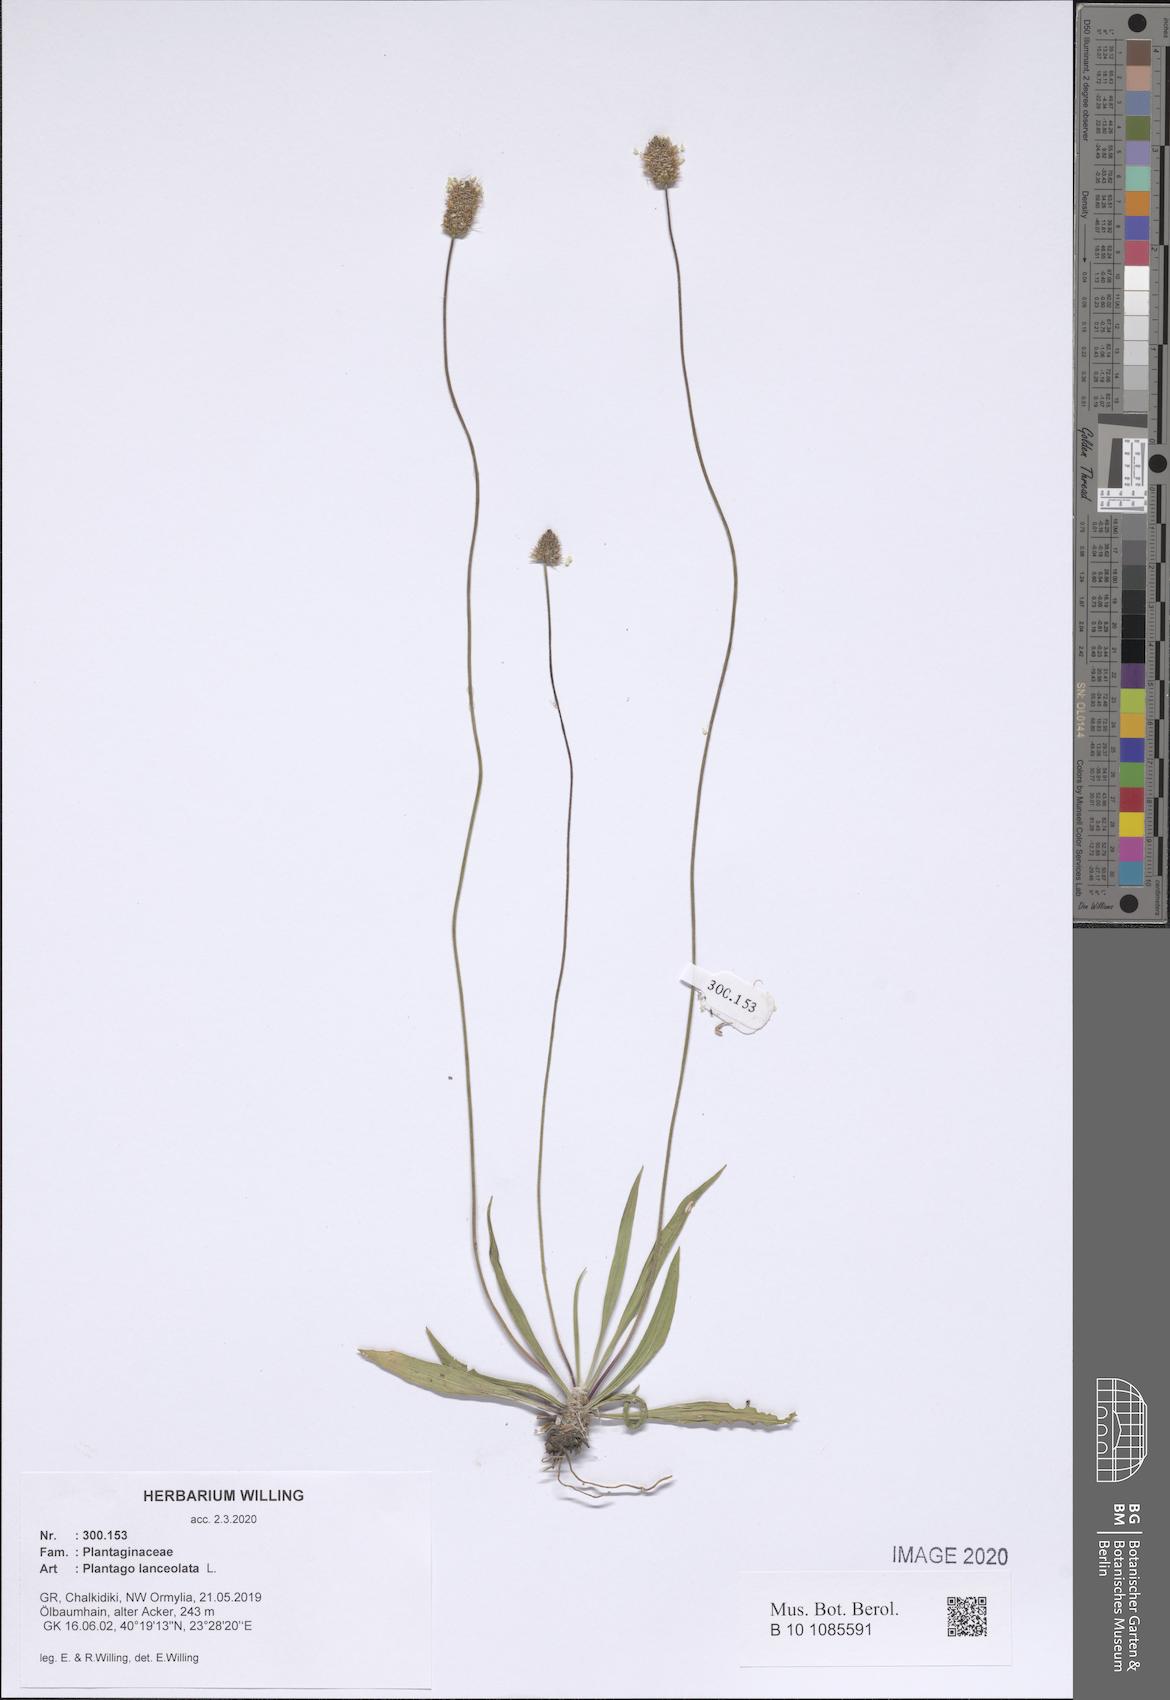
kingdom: Plantae
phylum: Tracheophyta
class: Magnoliopsida
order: Lamiales
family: Plantaginaceae
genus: Plantago
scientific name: Plantago lanceolata
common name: Ribwort plantain
